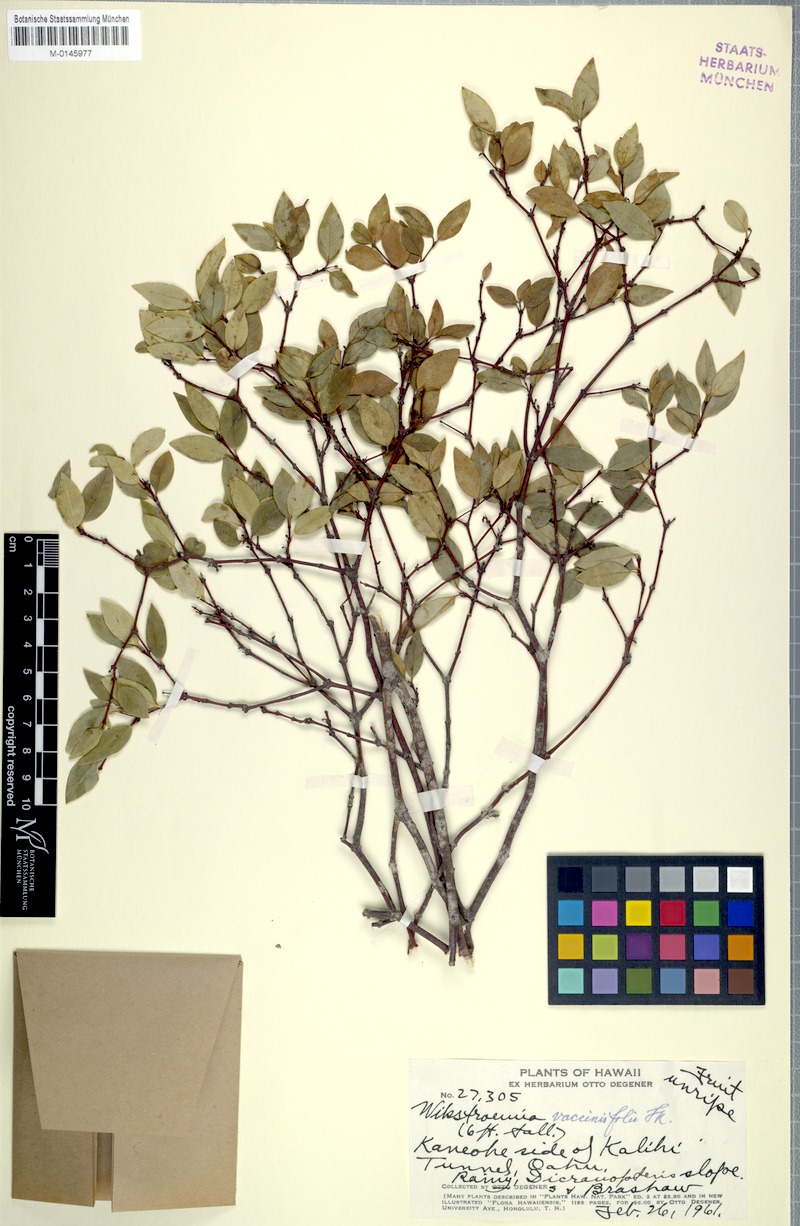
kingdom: Plantae
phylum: Tracheophyta
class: Magnoliopsida
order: Malvales
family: Thymelaeaceae
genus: Wikstroemia
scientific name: Wikstroemia oahuensis
